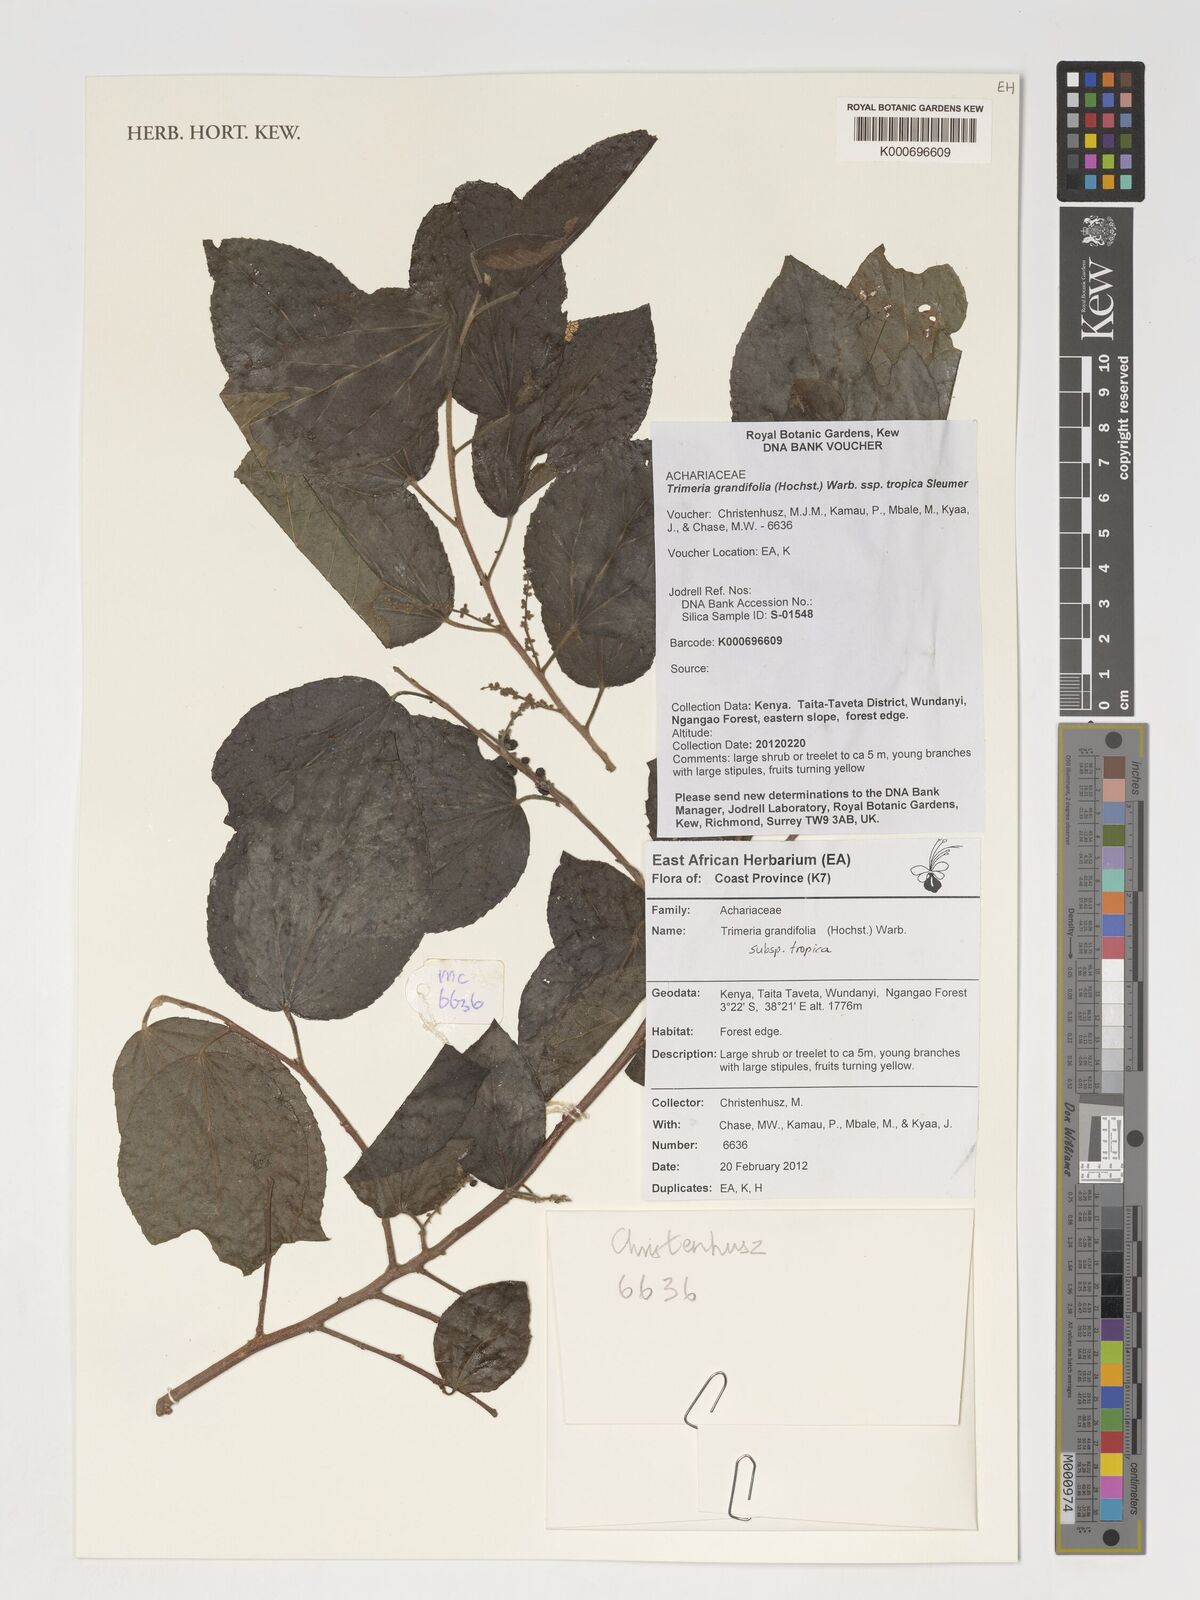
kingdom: Plantae
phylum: Tracheophyta
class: Magnoliopsida
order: Malpighiales
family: Salicaceae
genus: Trimeria
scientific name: Trimeria grandifolia
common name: Wild mulberry
